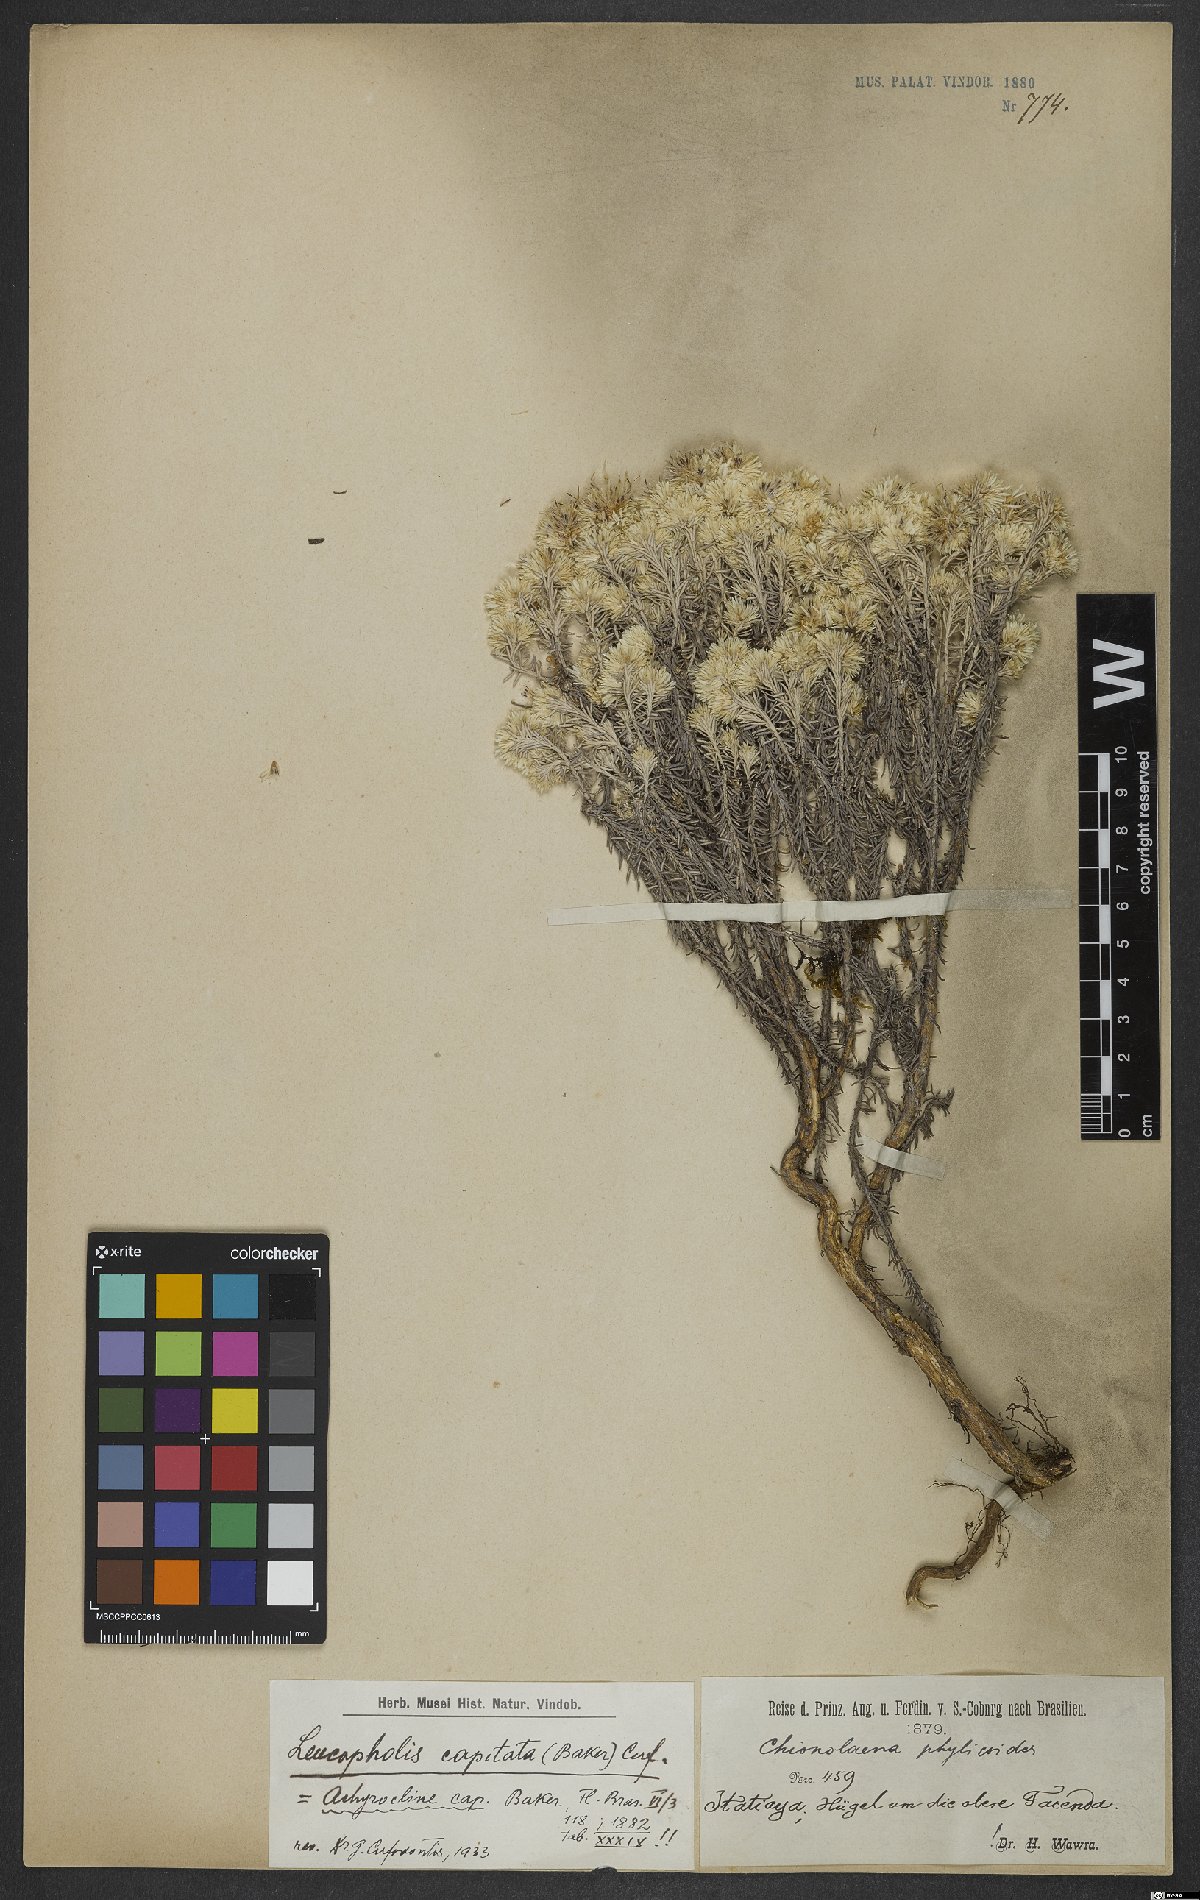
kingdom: Plantae
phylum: Tracheophyta
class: Magnoliopsida
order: Asterales
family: Asteraceae
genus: Chionolaena
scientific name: Chionolaena capitata
